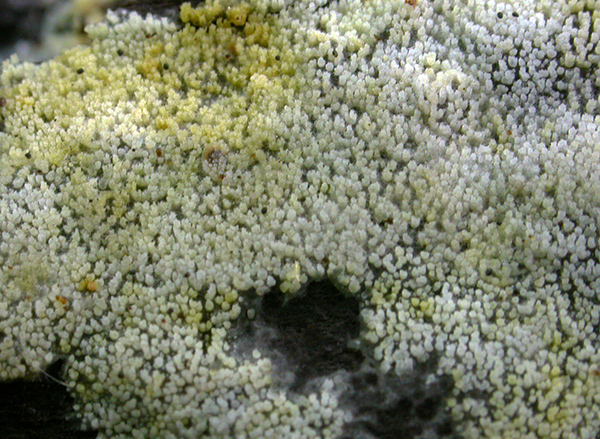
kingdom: Fungi
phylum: Basidiomycota
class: Agaricomycetes
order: Polyporales
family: Meruliaceae
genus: Scopuloides
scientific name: Scopuloides rimosa
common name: dughinde
